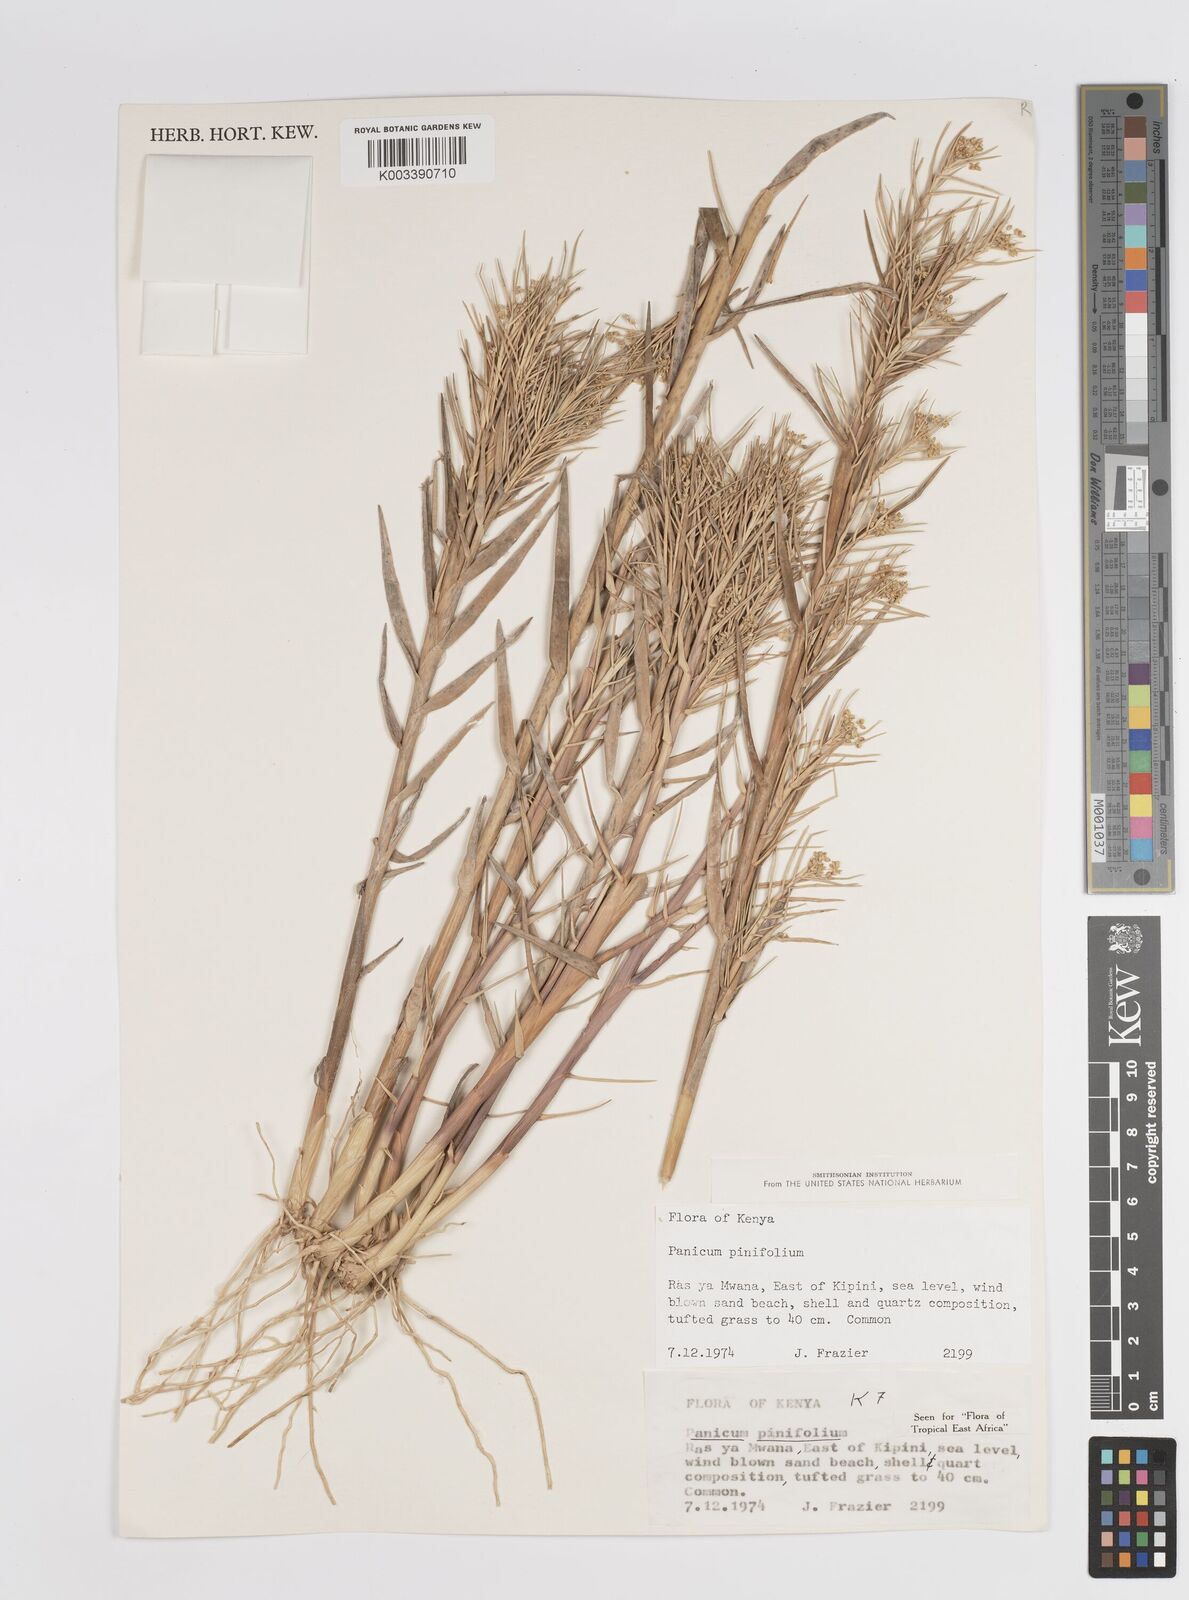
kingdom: Plantae
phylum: Tracheophyta
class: Liliopsida
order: Poales
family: Poaceae
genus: Panicum
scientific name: Panicum pinifolium
